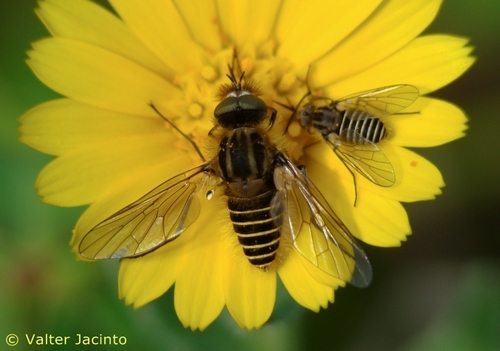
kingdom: Animalia
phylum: Arthropoda
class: Insecta
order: Diptera
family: Bombyliidae
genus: Protypusia
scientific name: Protypusia incisa
